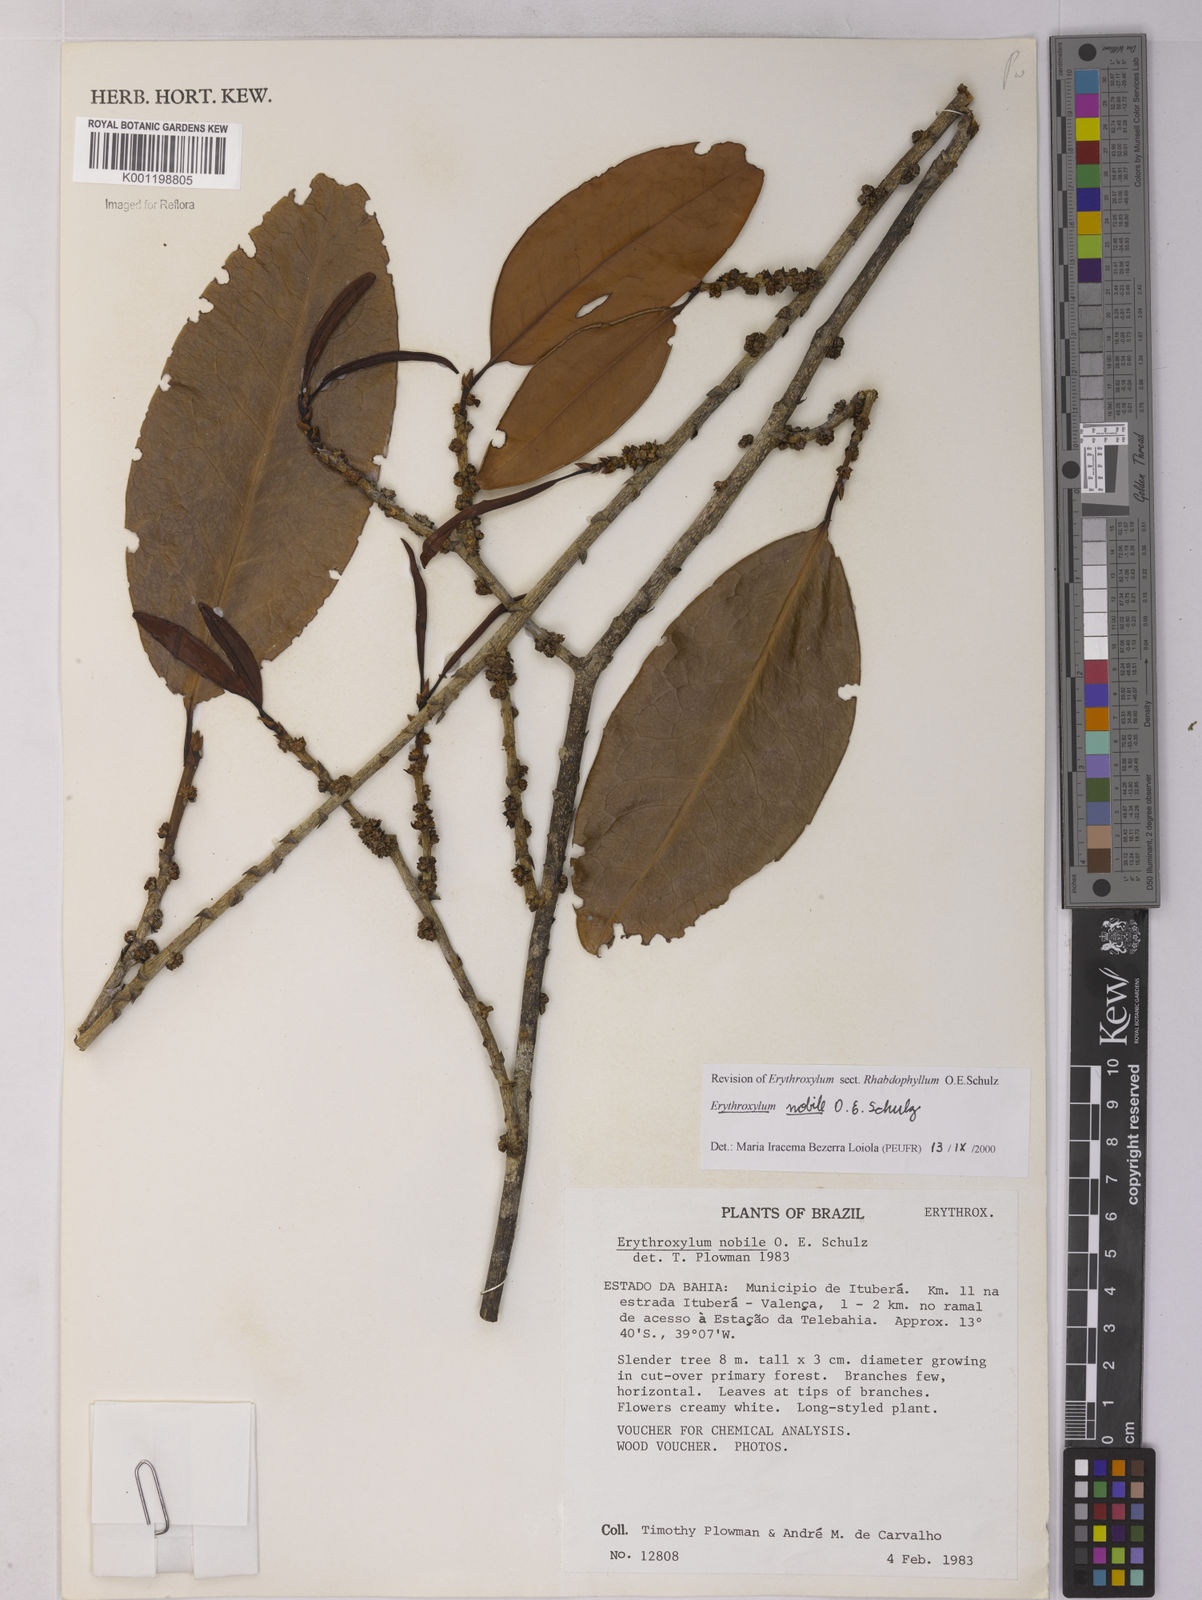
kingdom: Plantae
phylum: Tracheophyta
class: Magnoliopsida
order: Malpighiales
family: Erythroxylaceae
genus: Erythroxylum
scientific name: Erythroxylum nobile
